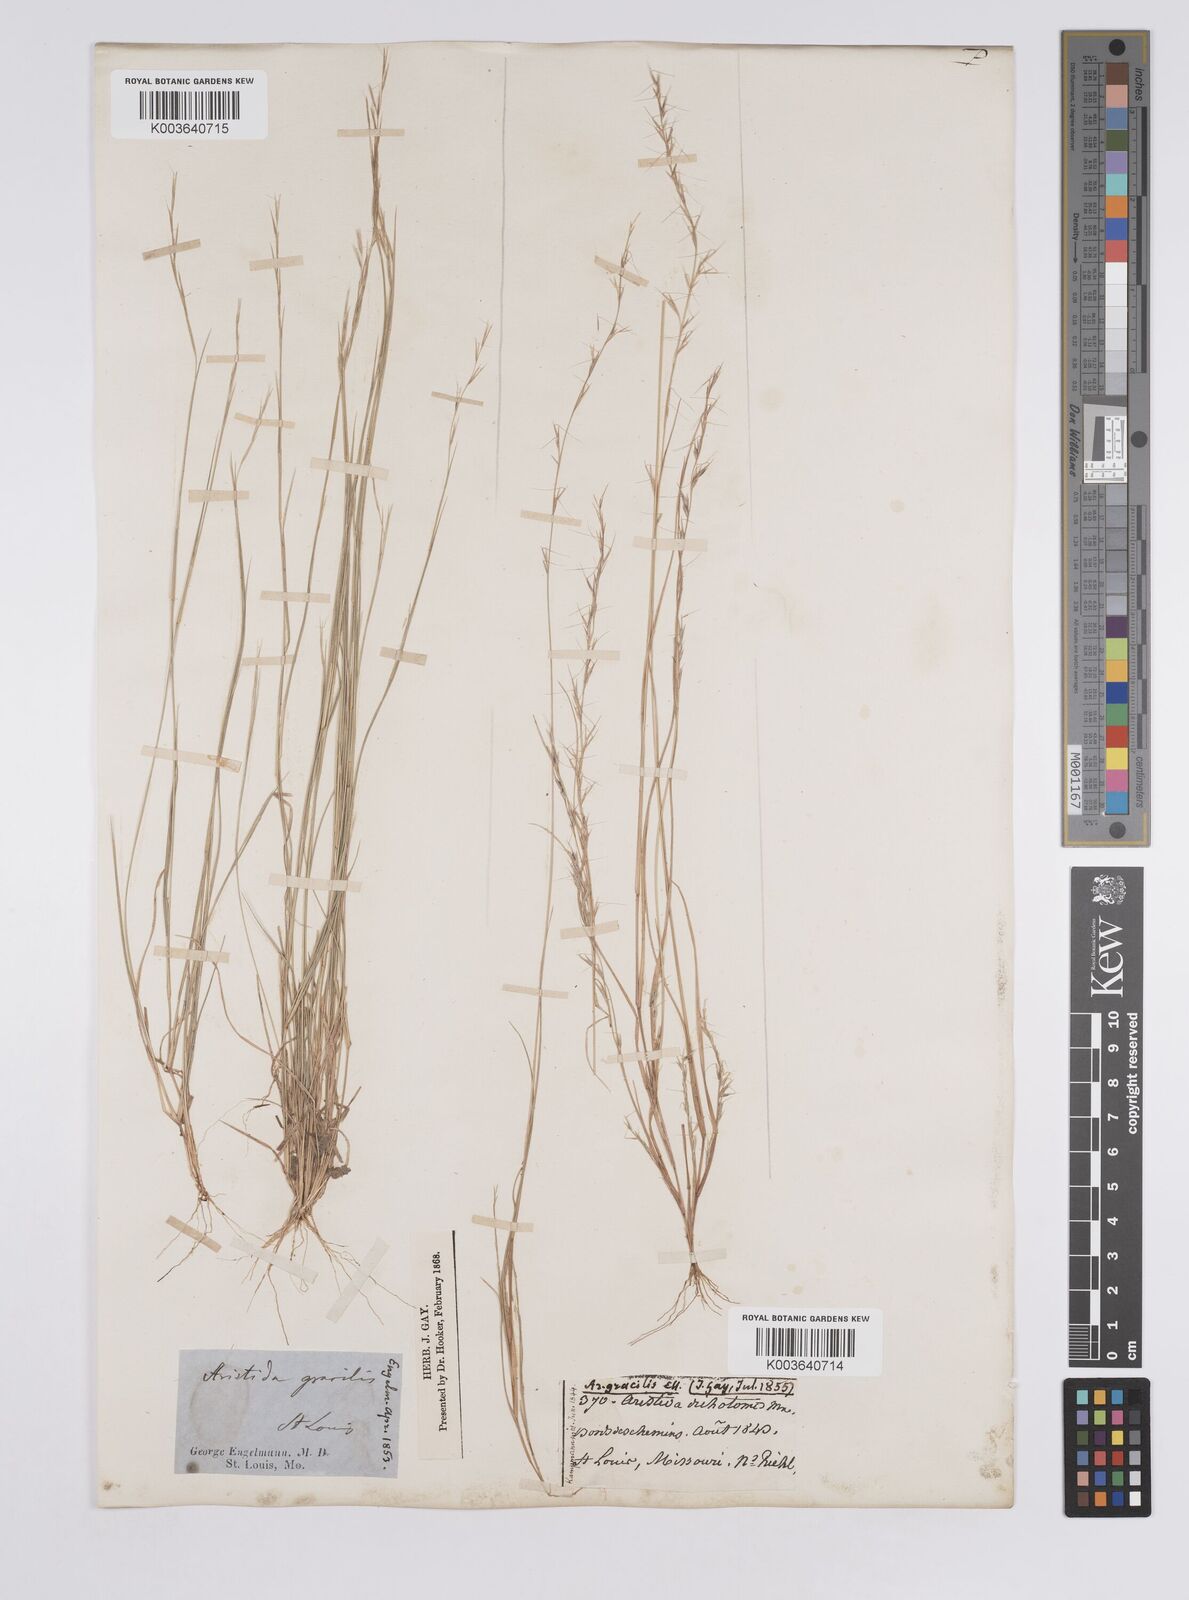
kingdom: Plantae
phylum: Tracheophyta
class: Liliopsida
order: Poales
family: Poaceae
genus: Aristida
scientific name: Aristida longespica
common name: Long-spiked triple-awned grass
